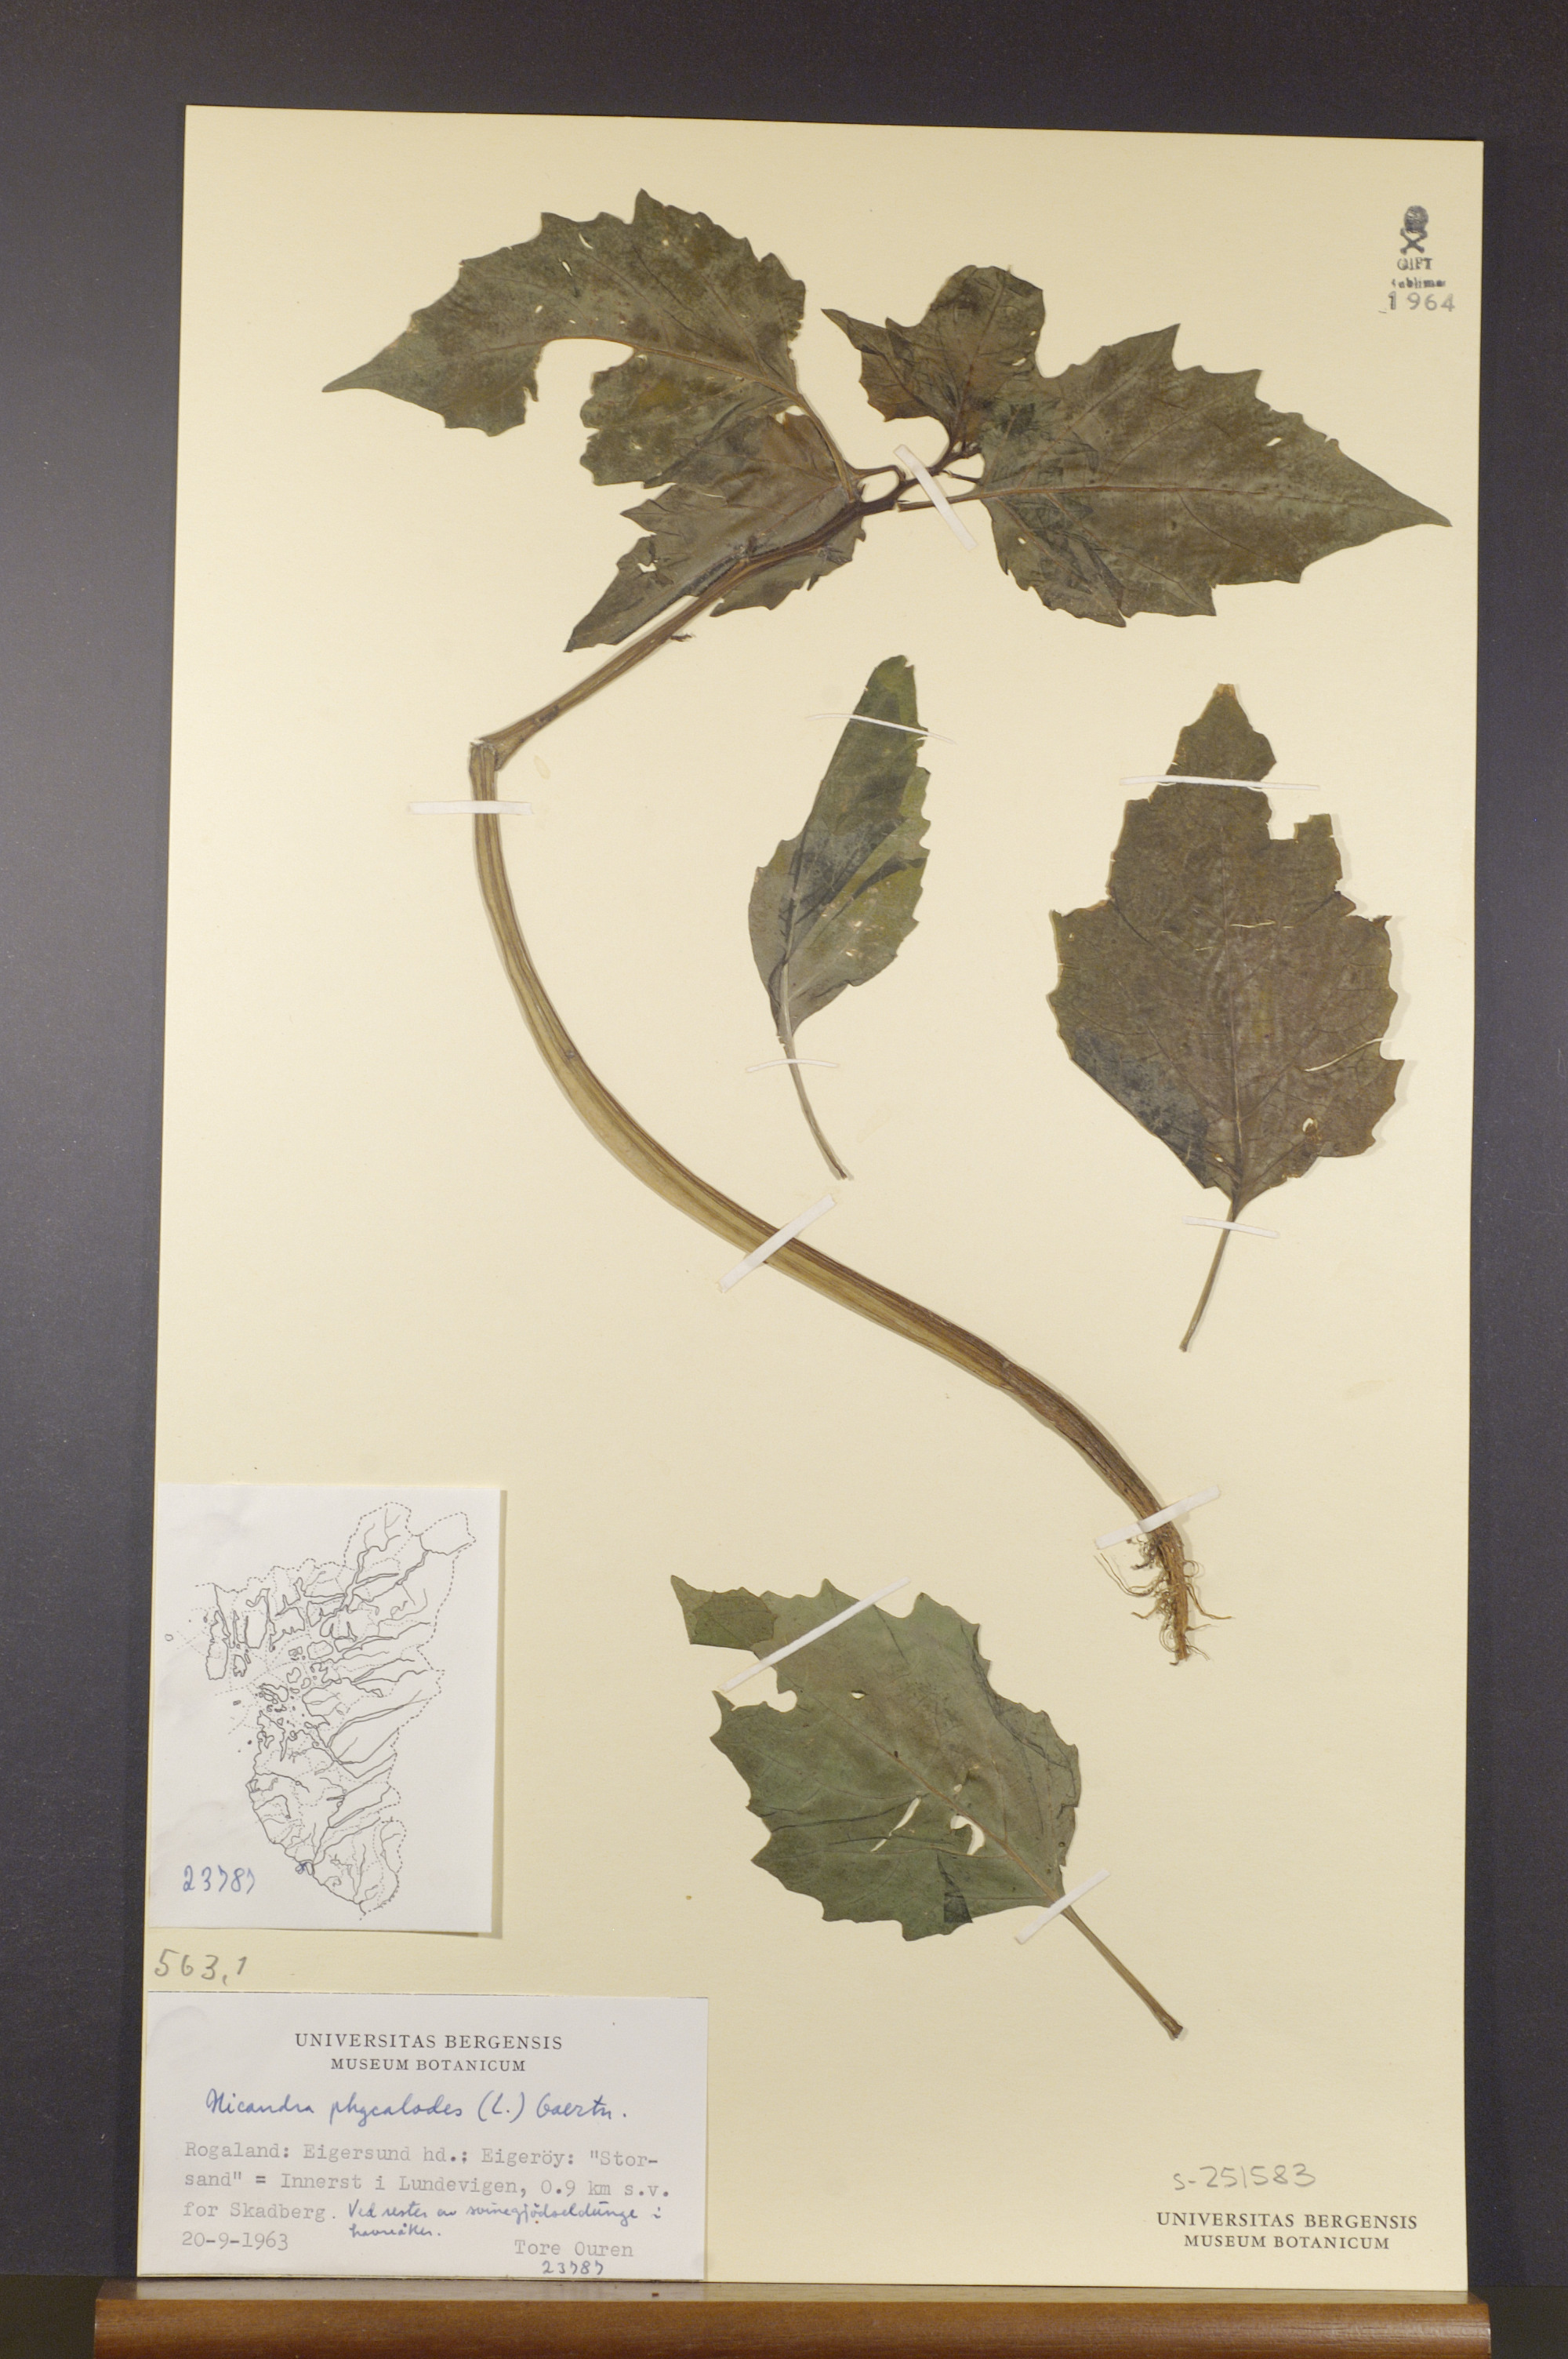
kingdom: Plantae
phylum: Tracheophyta
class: Magnoliopsida
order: Solanales
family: Solanaceae
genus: Nicandra
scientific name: Nicandra physalodes
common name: Apple-of-peru
